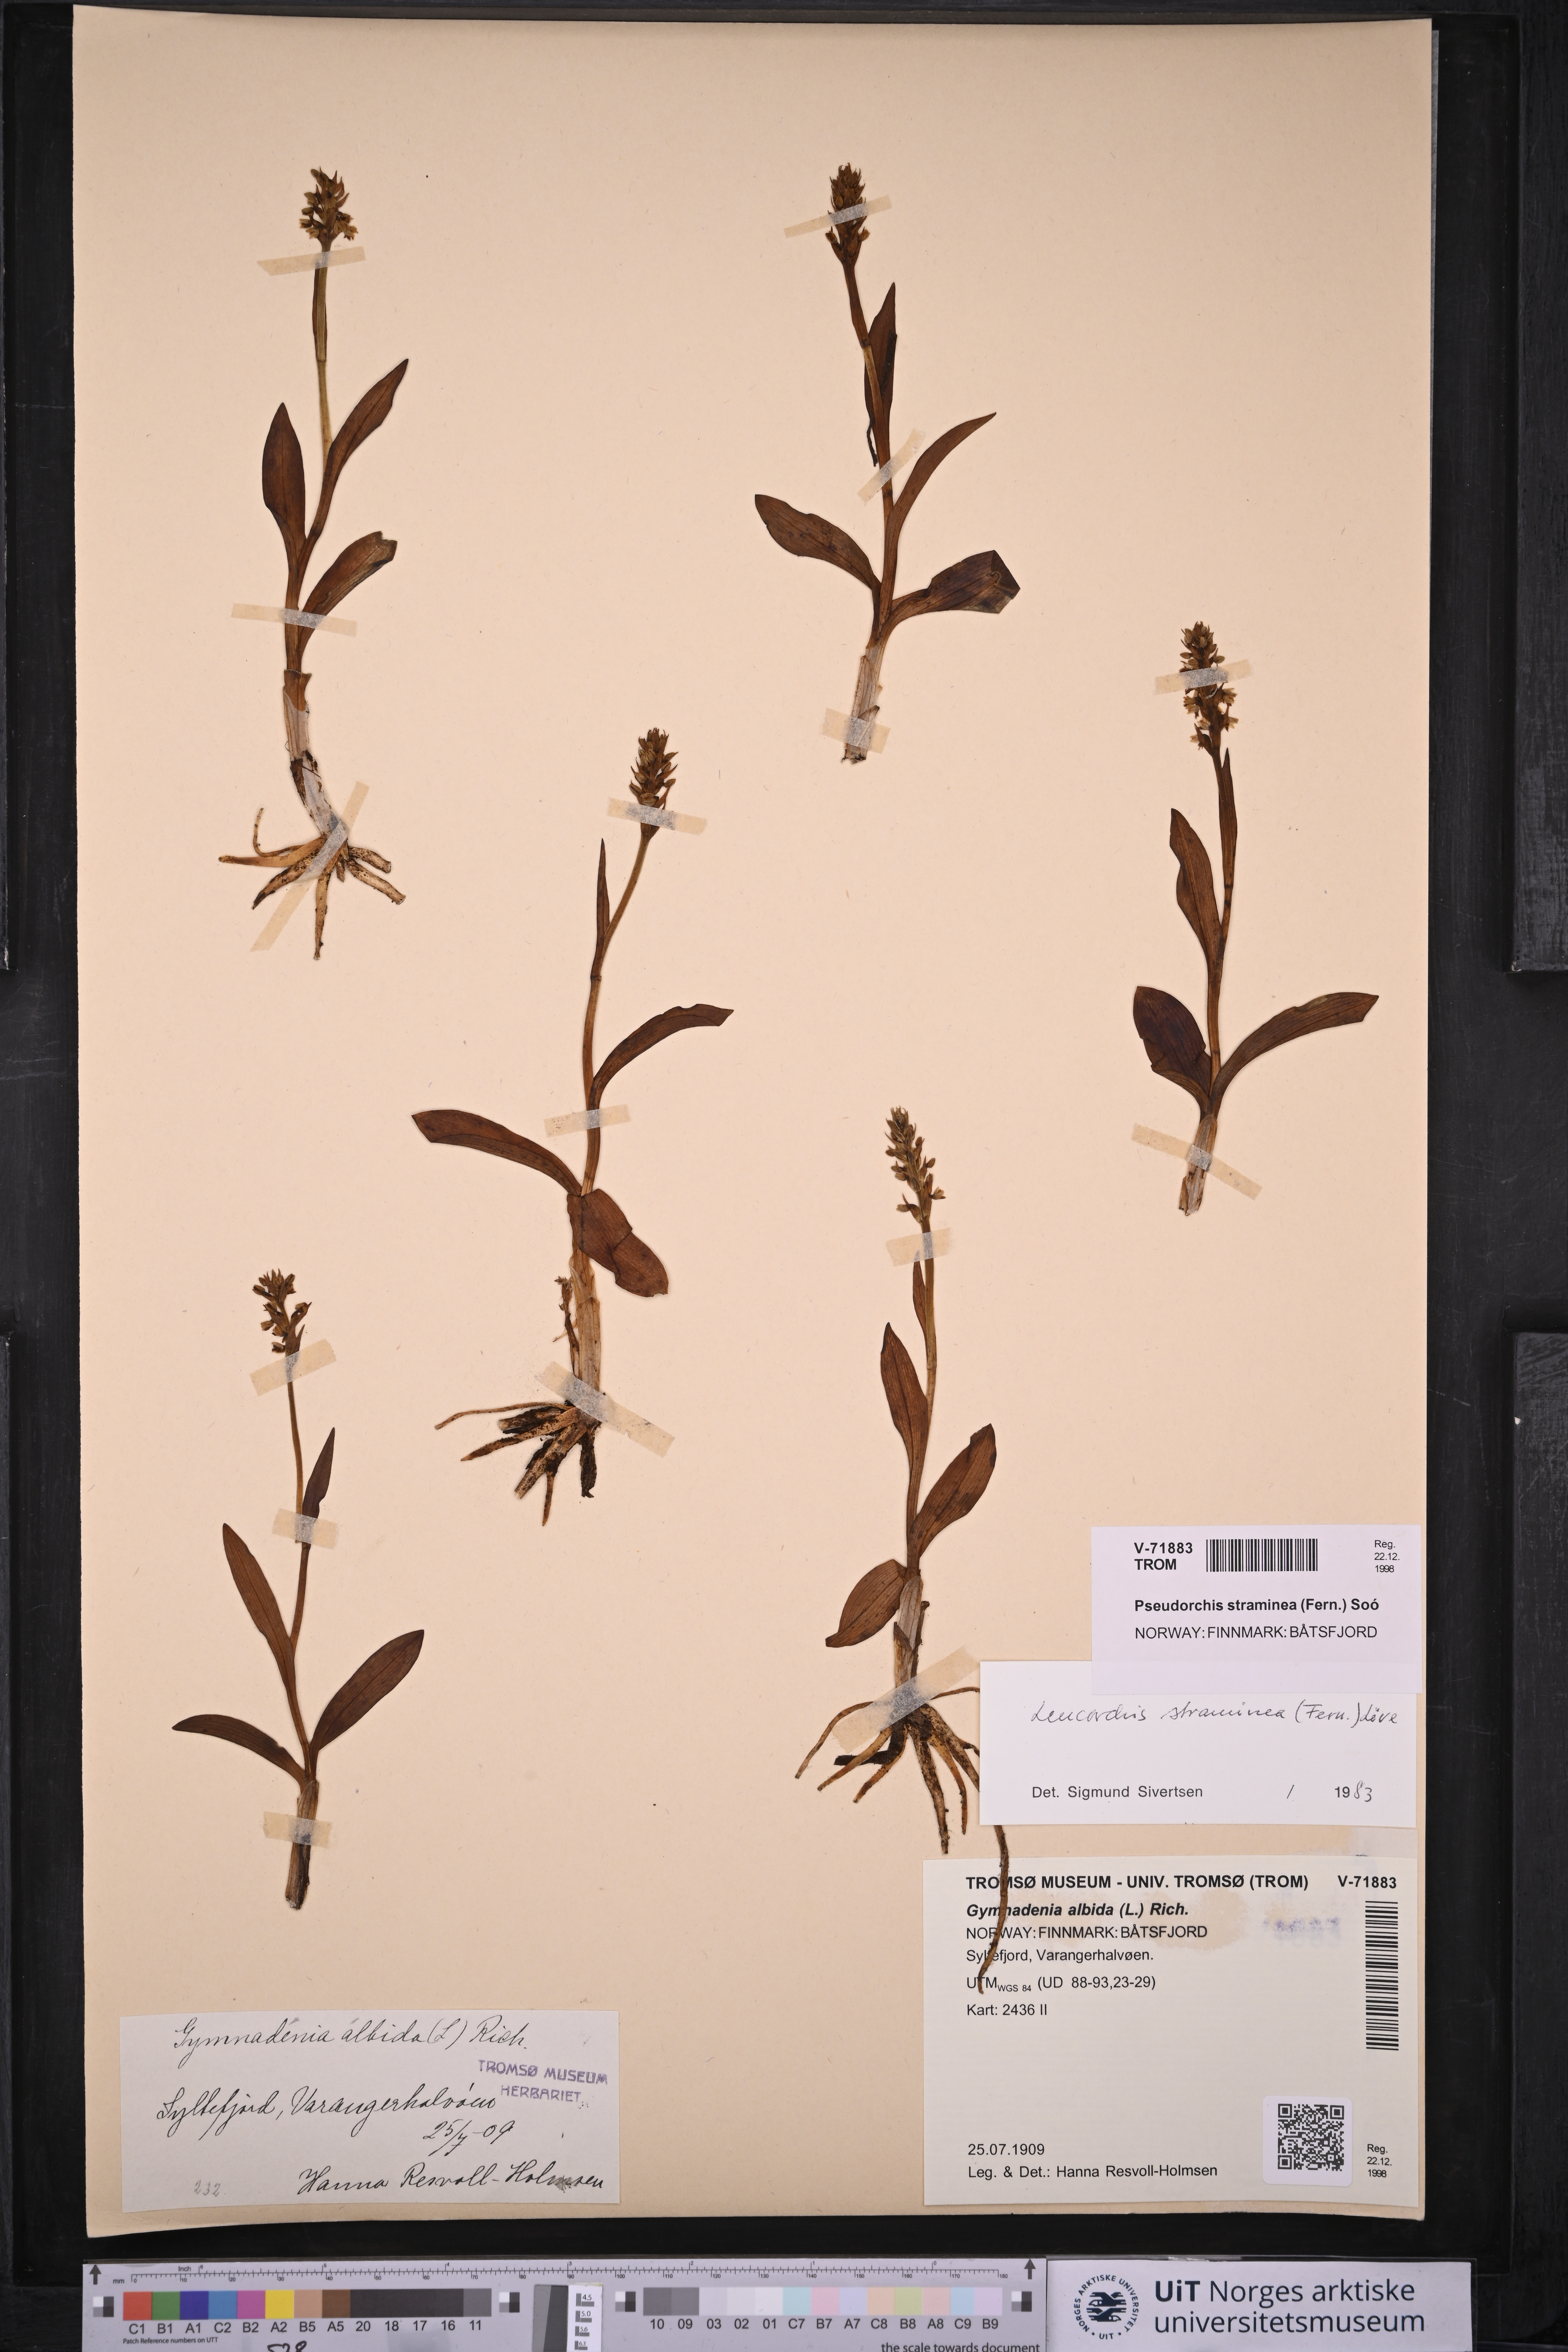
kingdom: Plantae
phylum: Tracheophyta
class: Liliopsida
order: Asparagales
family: Orchidaceae
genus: Pseudorchis
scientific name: Pseudorchis straminea
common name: Vanilla-scented bog orchid
